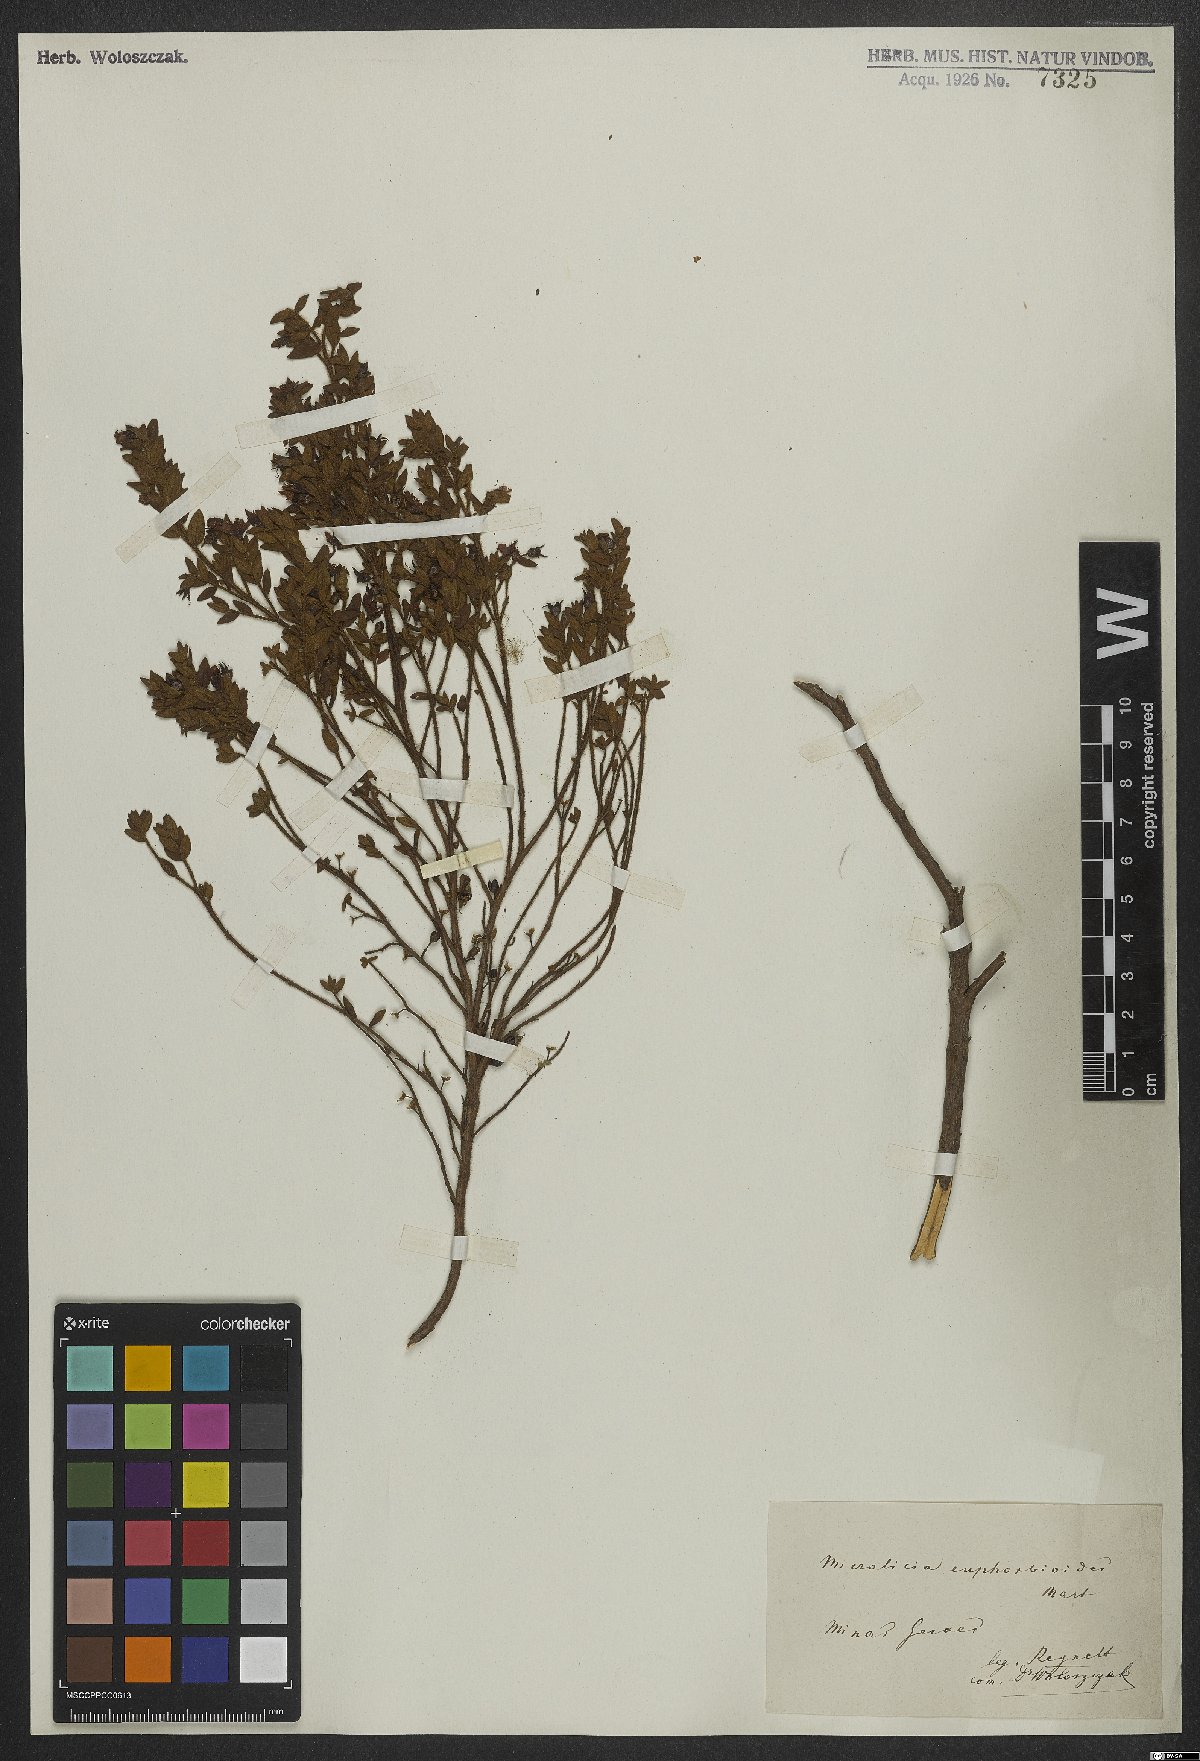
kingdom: Plantae
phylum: Tracheophyta
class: Magnoliopsida
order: Myrtales
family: Melastomataceae
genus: Microlicia
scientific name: Microlicia euphorbioides
